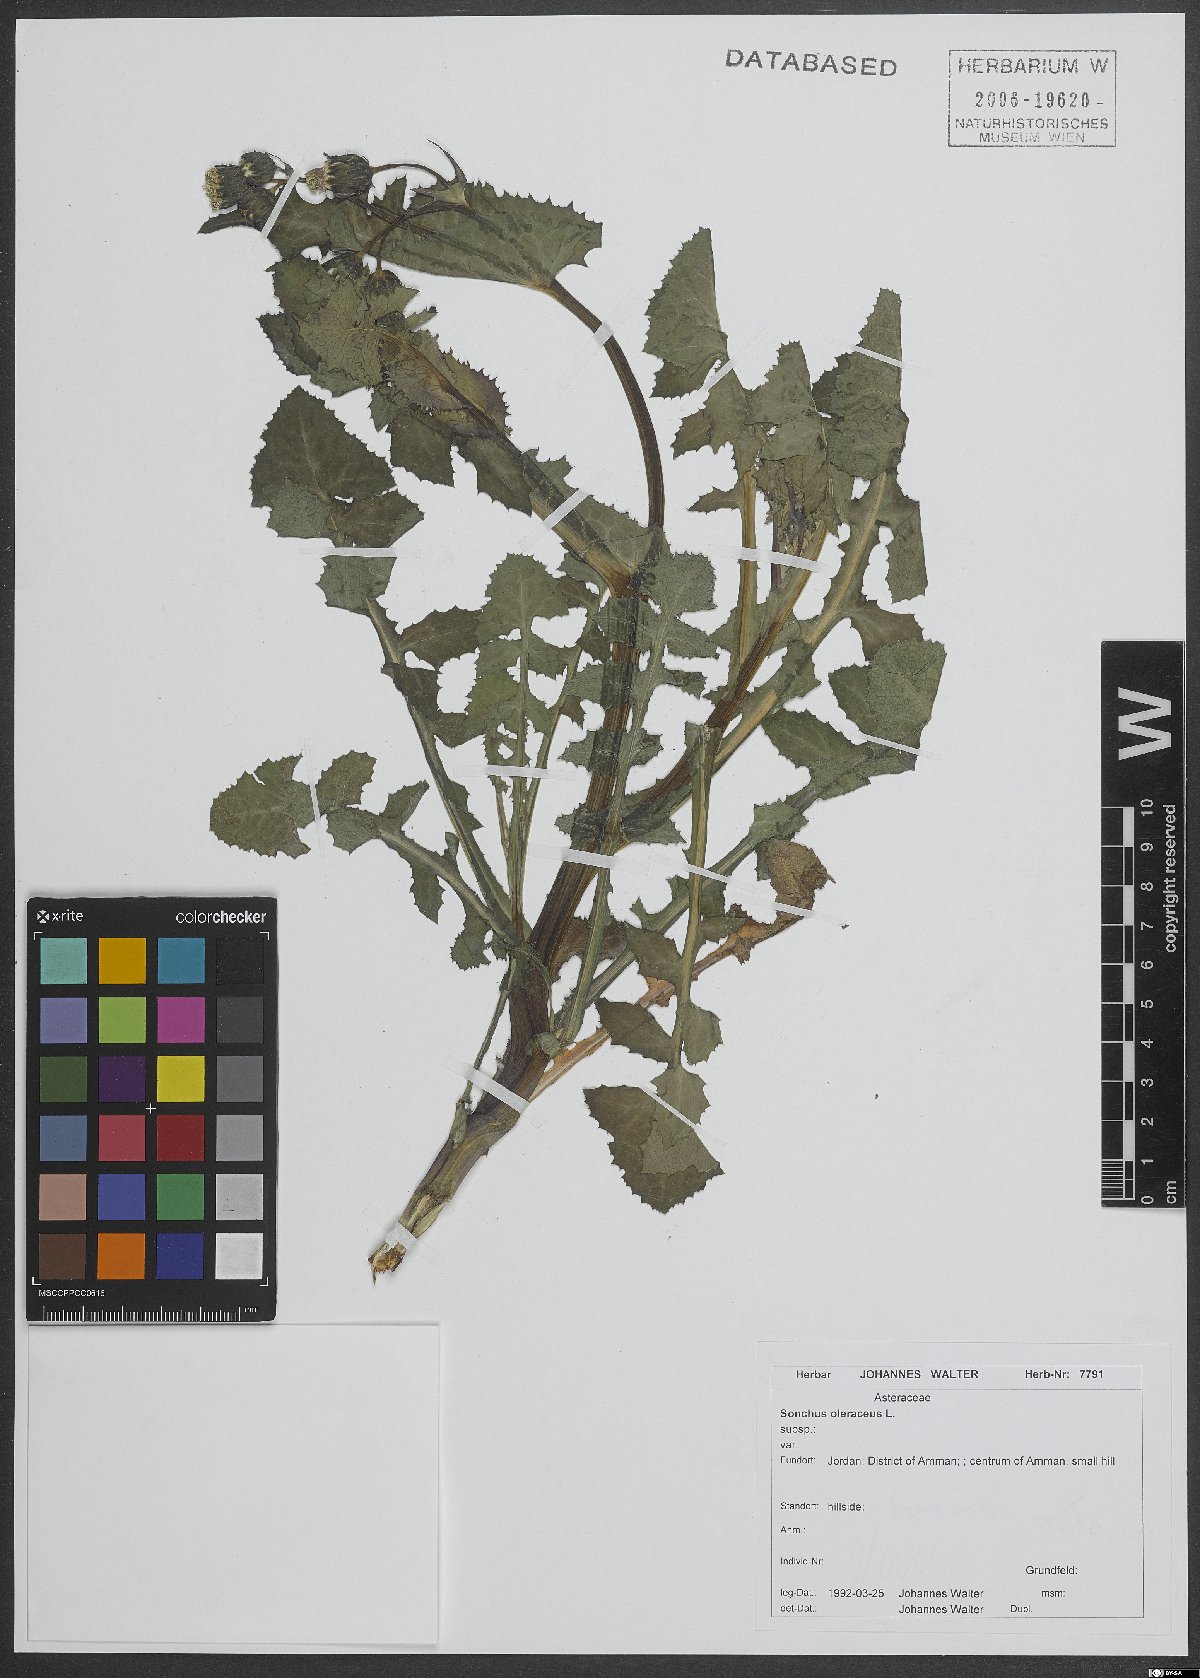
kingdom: Plantae
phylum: Tracheophyta
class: Magnoliopsida
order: Asterales
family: Asteraceae
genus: Sonchus
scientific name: Sonchus oleraceus
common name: Common sowthistle
